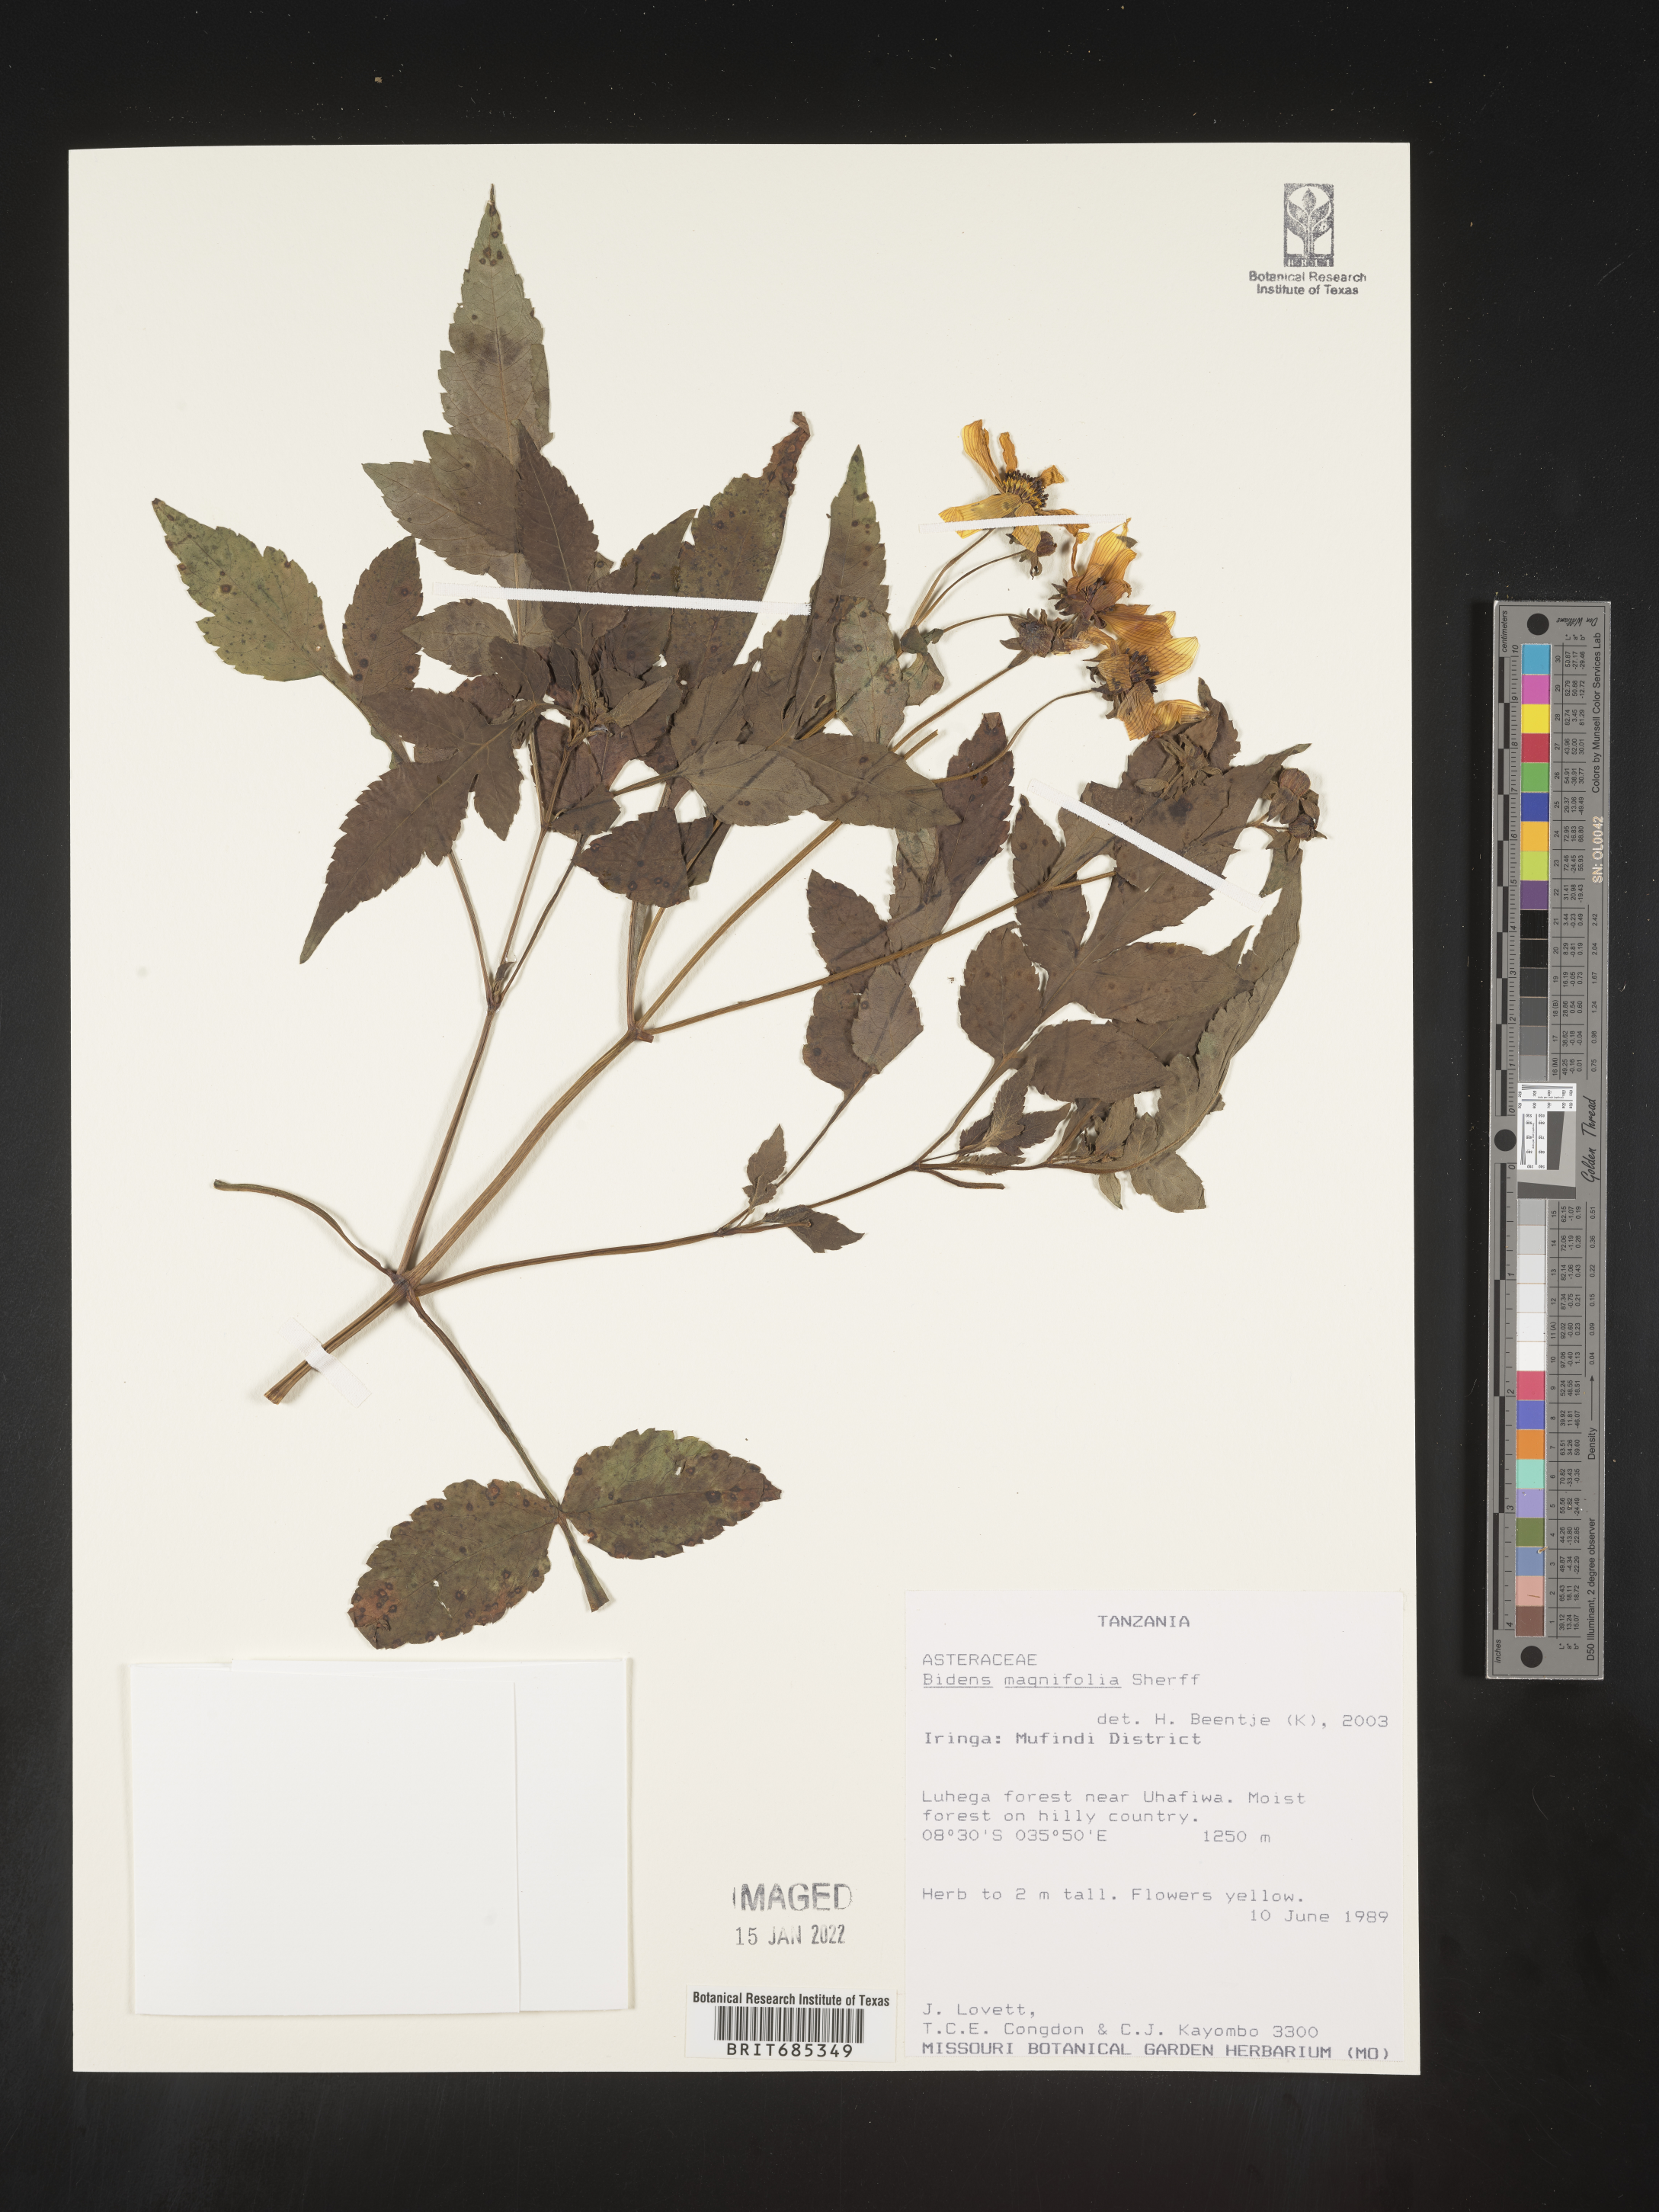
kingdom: Plantae
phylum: Tracheophyta
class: Magnoliopsida
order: Asterales
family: Asteraceae
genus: Bidens
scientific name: Bidens
